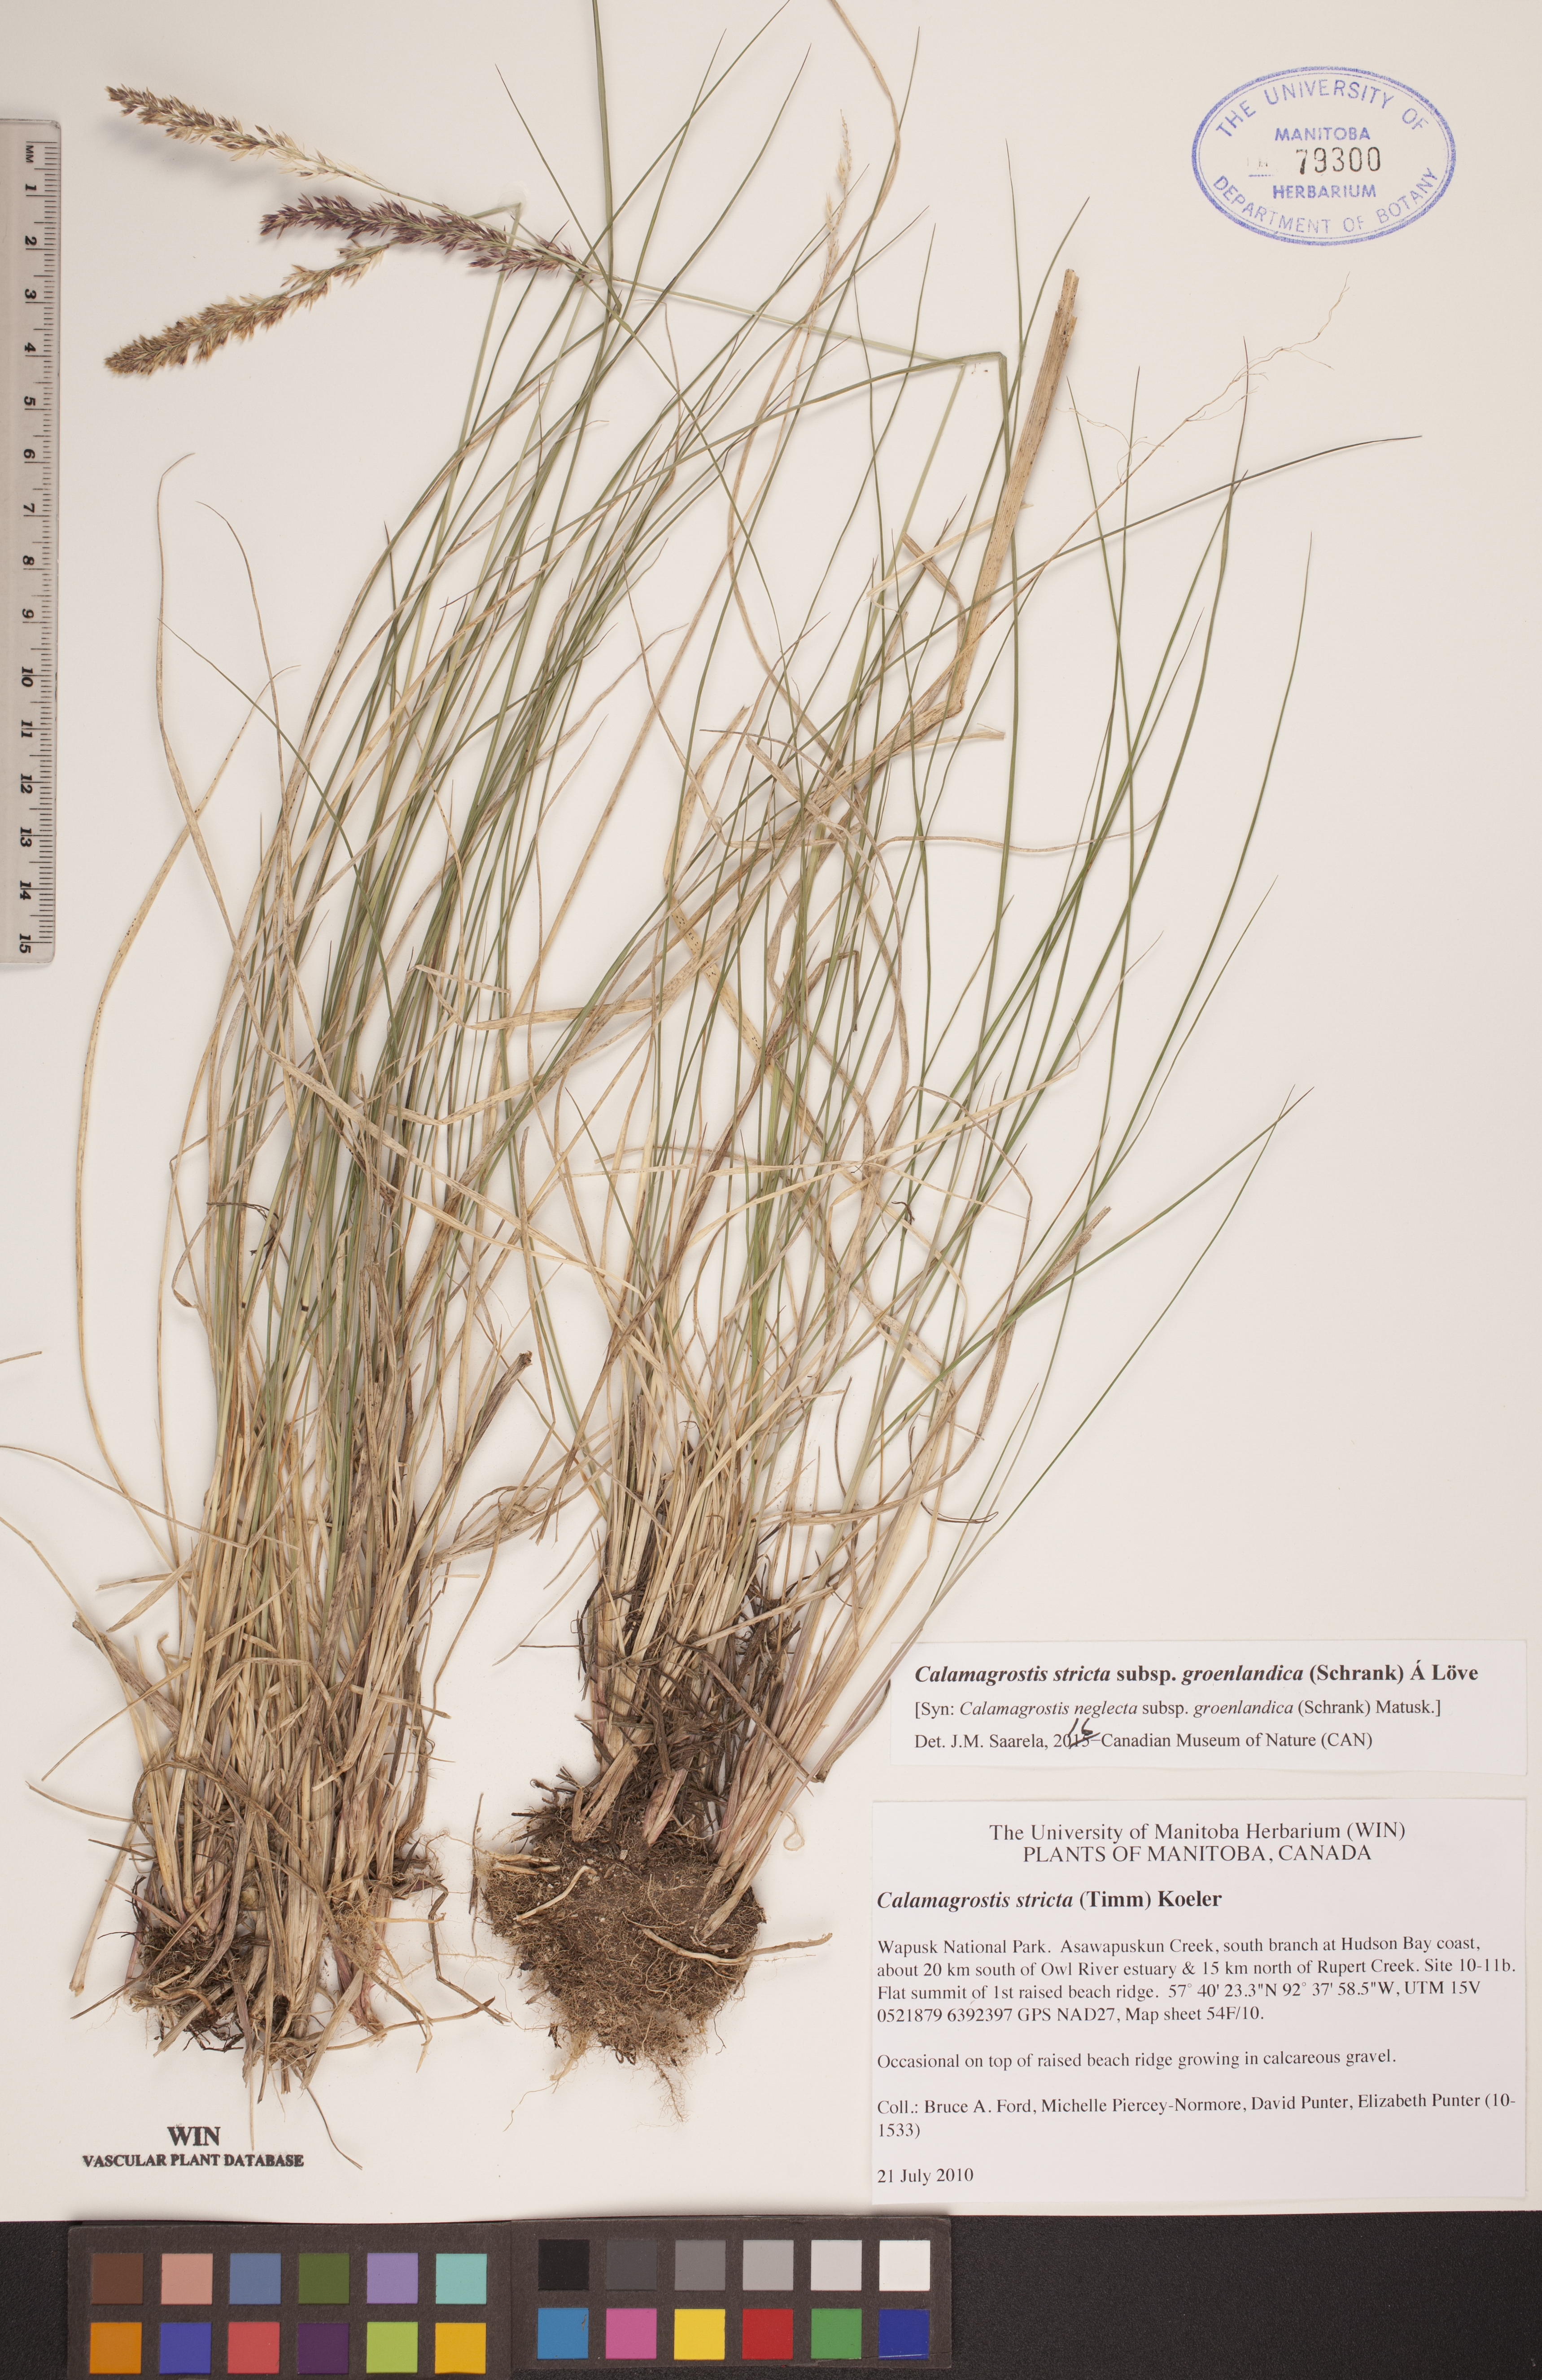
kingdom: Plantae
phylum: Tracheophyta
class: Liliopsida
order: Poales
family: Poaceae
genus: Calamagrostis
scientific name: Calamagrostis stricta
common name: Narrow small-reed
